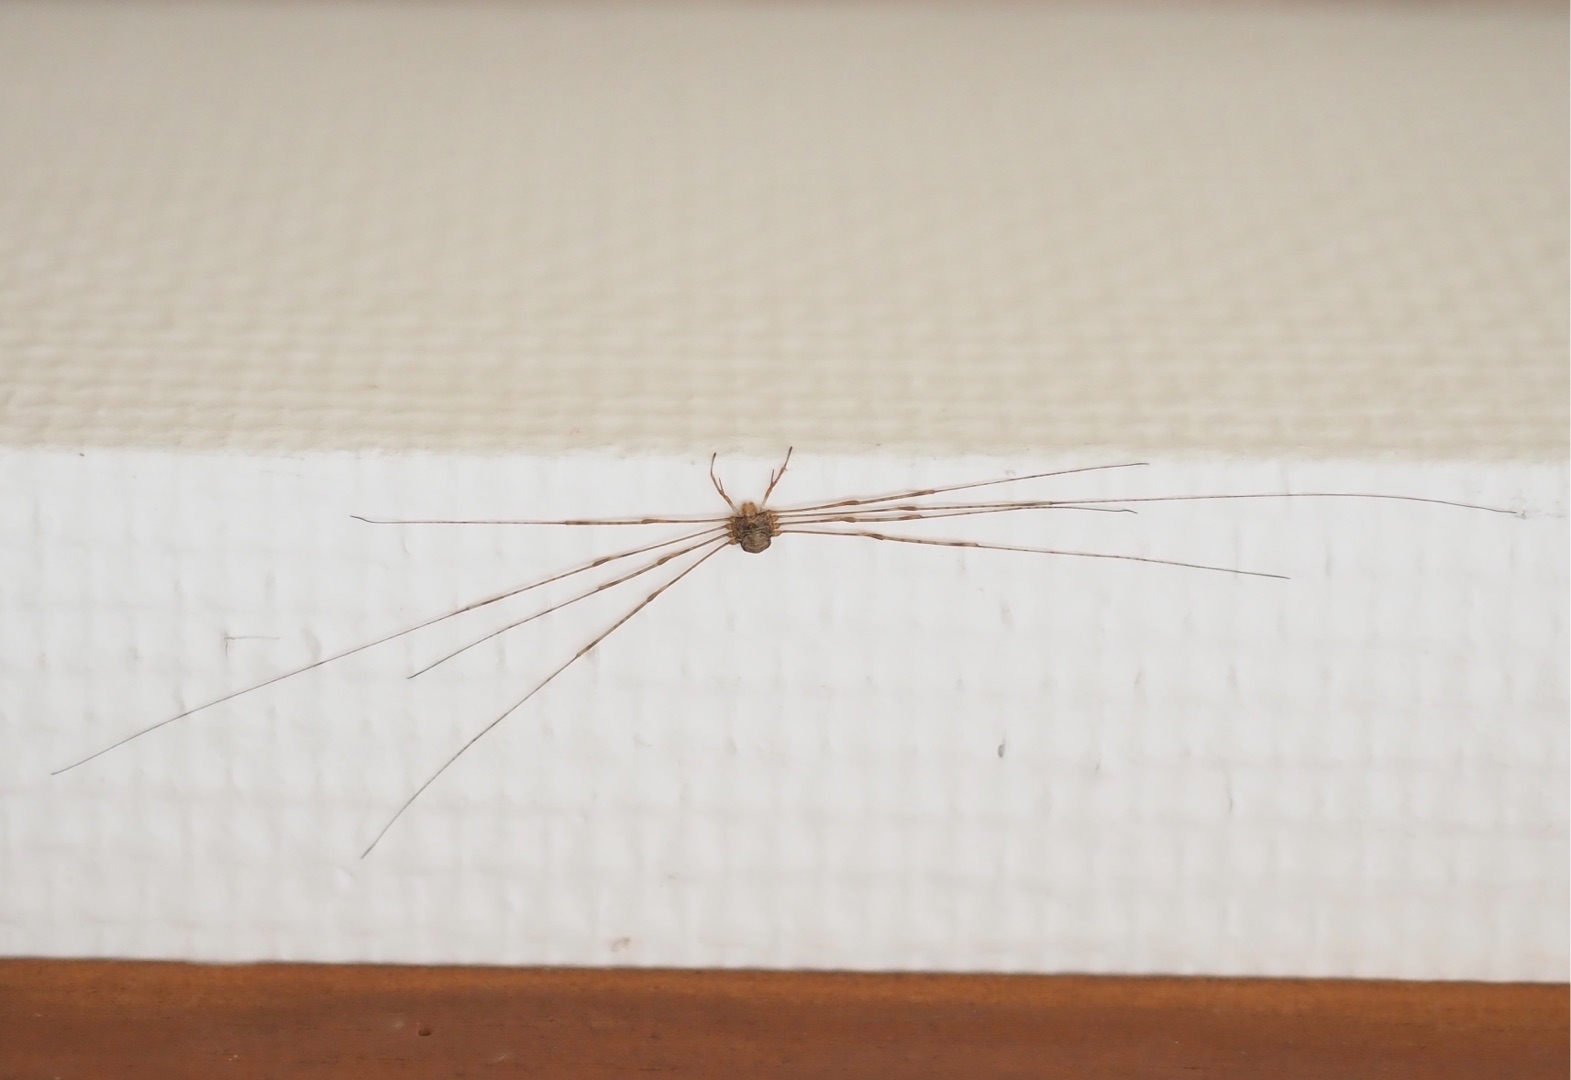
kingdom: Animalia
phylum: Arthropoda
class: Arachnida
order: Opiliones
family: Phalangiidae
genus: Dicranopalpus
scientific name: Dicranopalpus ramosus
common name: Gaffelmejer
